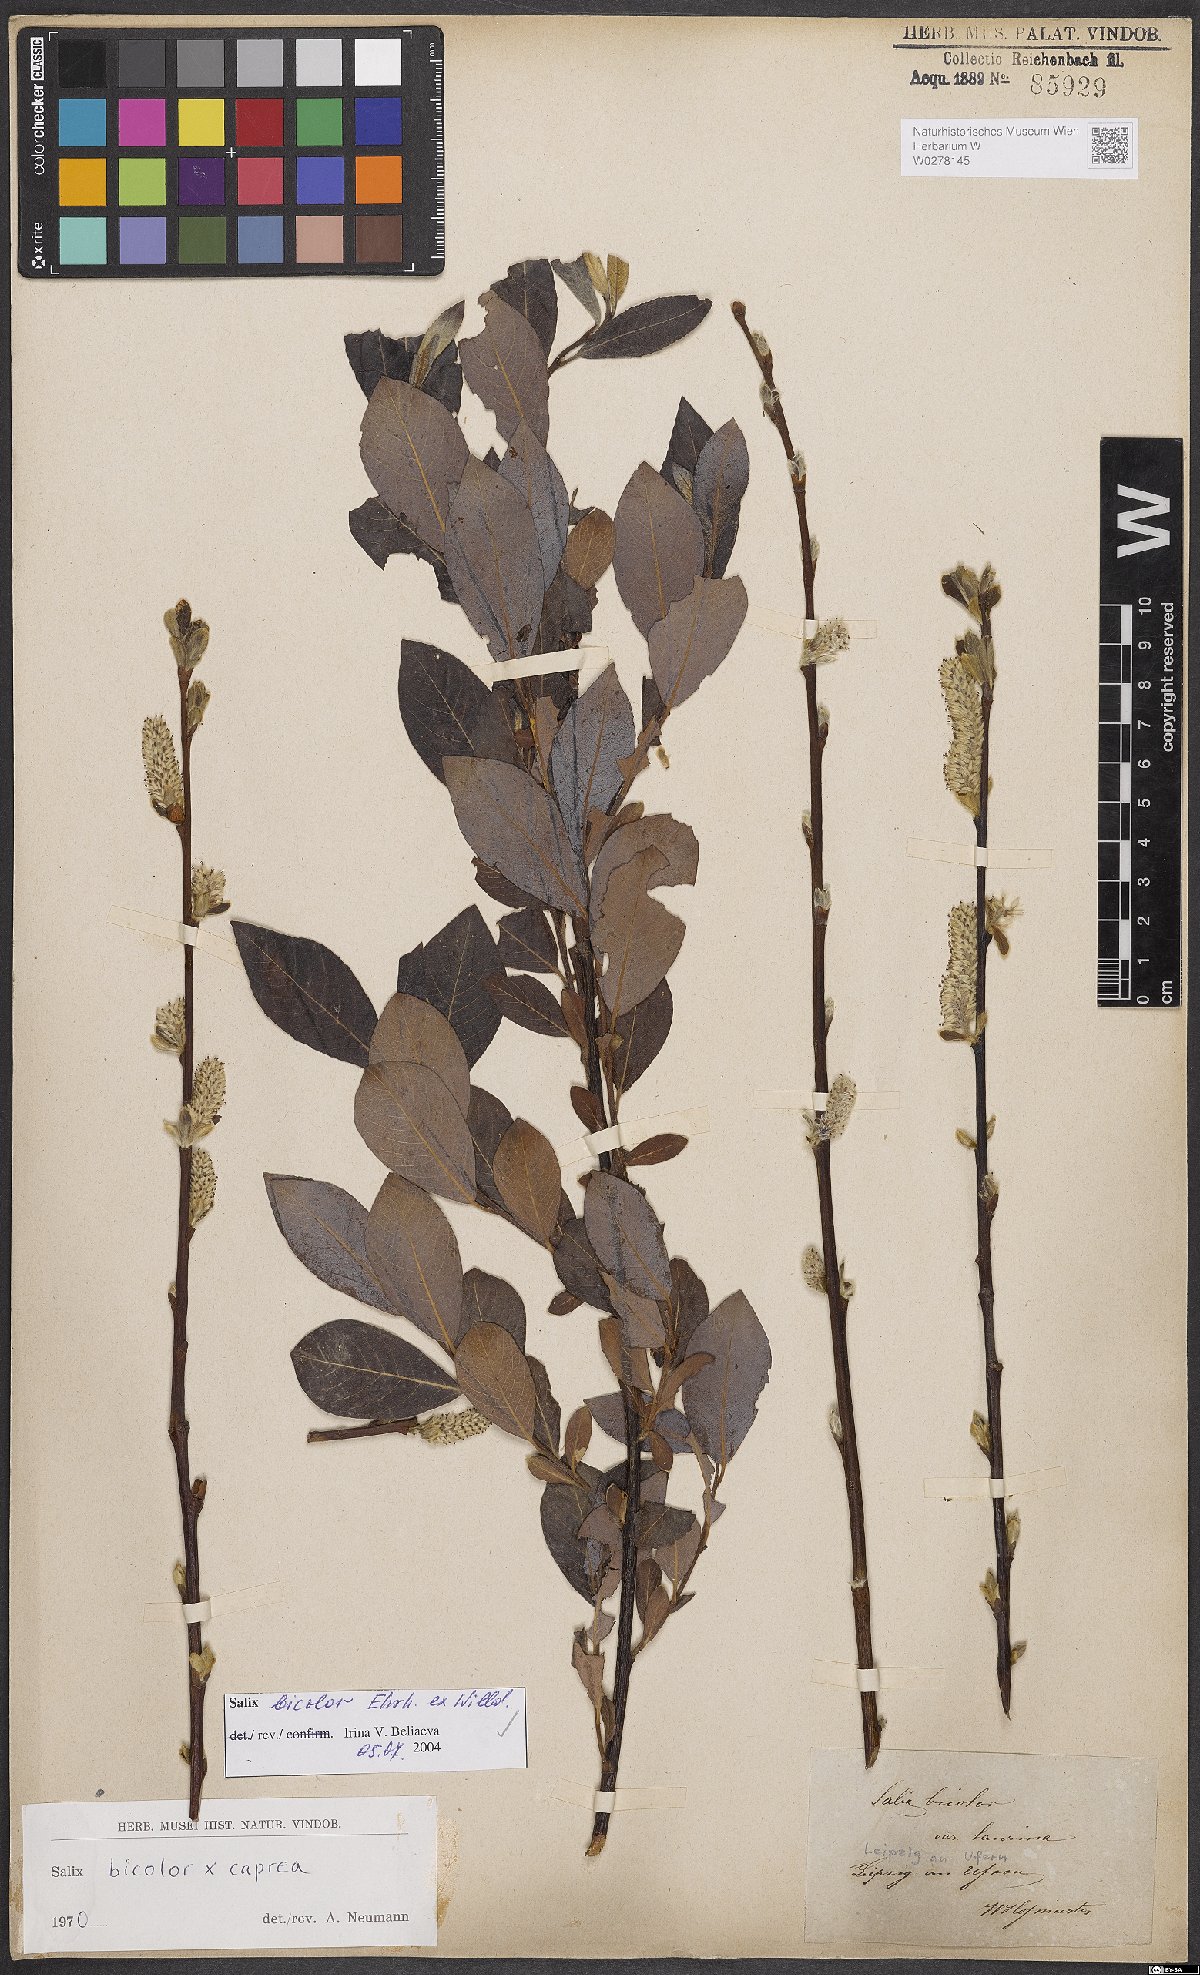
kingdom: Plantae
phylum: Tracheophyta
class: Magnoliopsida
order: Malpighiales
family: Salicaceae
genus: Salix
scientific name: Salix bicolor
